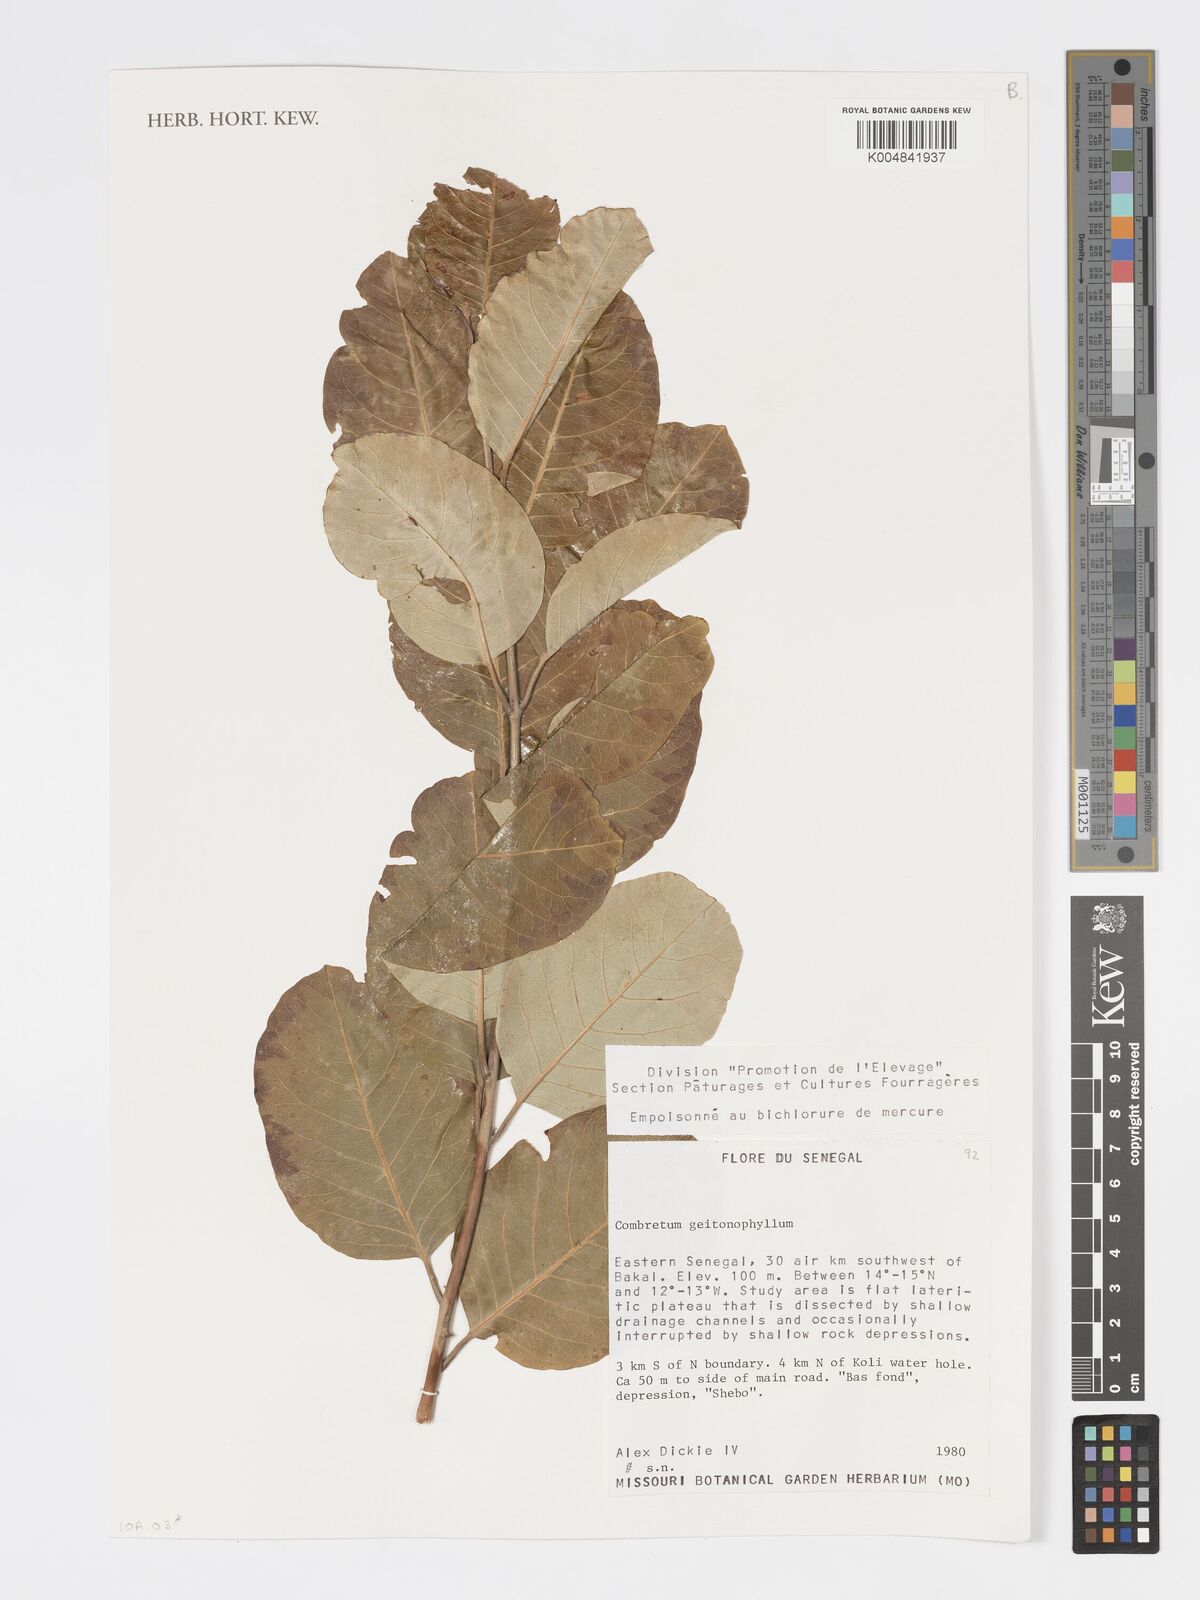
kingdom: Plantae
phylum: Tracheophyta
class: Magnoliopsida
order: Myrtales
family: Combretaceae
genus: Combretum
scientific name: Combretum collinum
